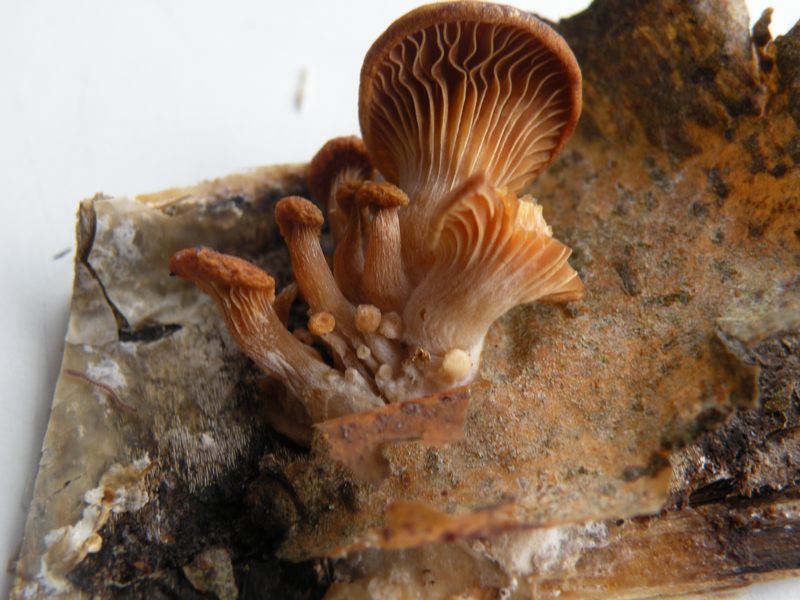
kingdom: Fungi
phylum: Basidiomycota
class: Agaricomycetes
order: Agaricales
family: Pleurotaceae
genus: Pleurotus
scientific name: Pleurotus ostreatus
